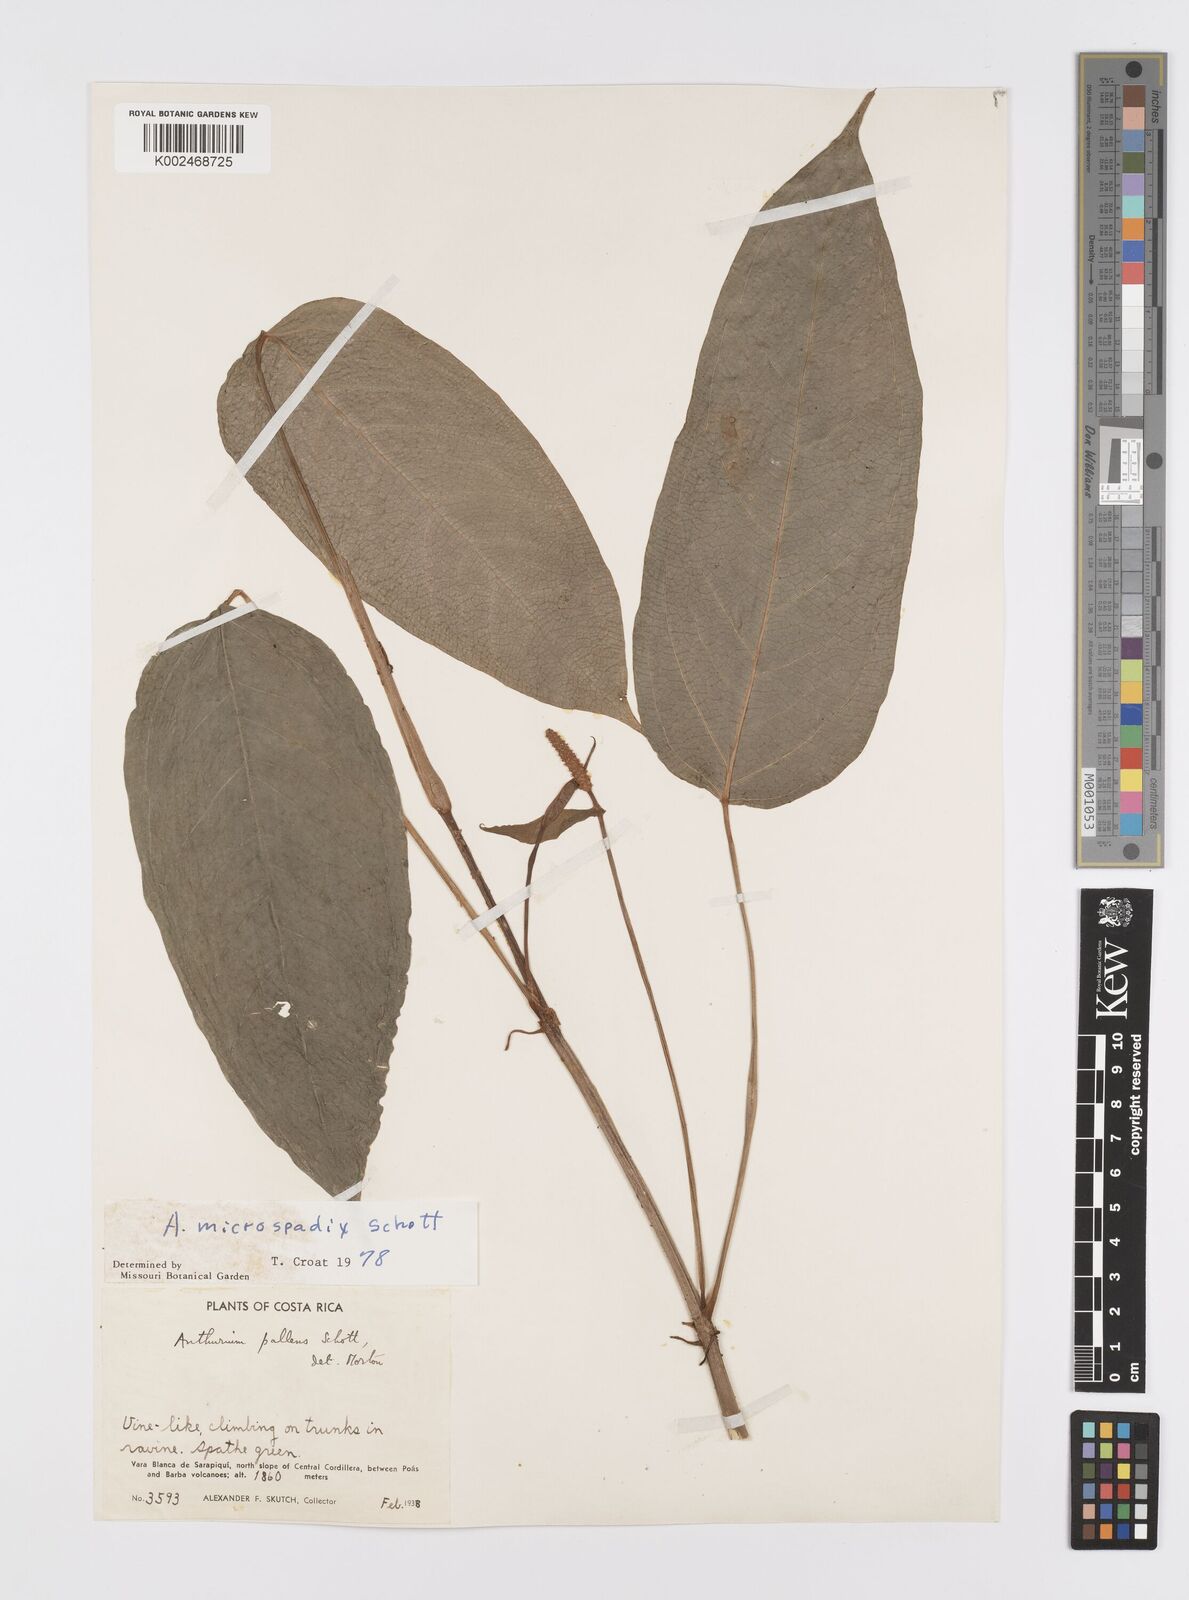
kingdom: Plantae
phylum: Tracheophyta
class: Liliopsida
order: Alismatales
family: Araceae
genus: Anthurium
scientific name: Anthurium microspadix
